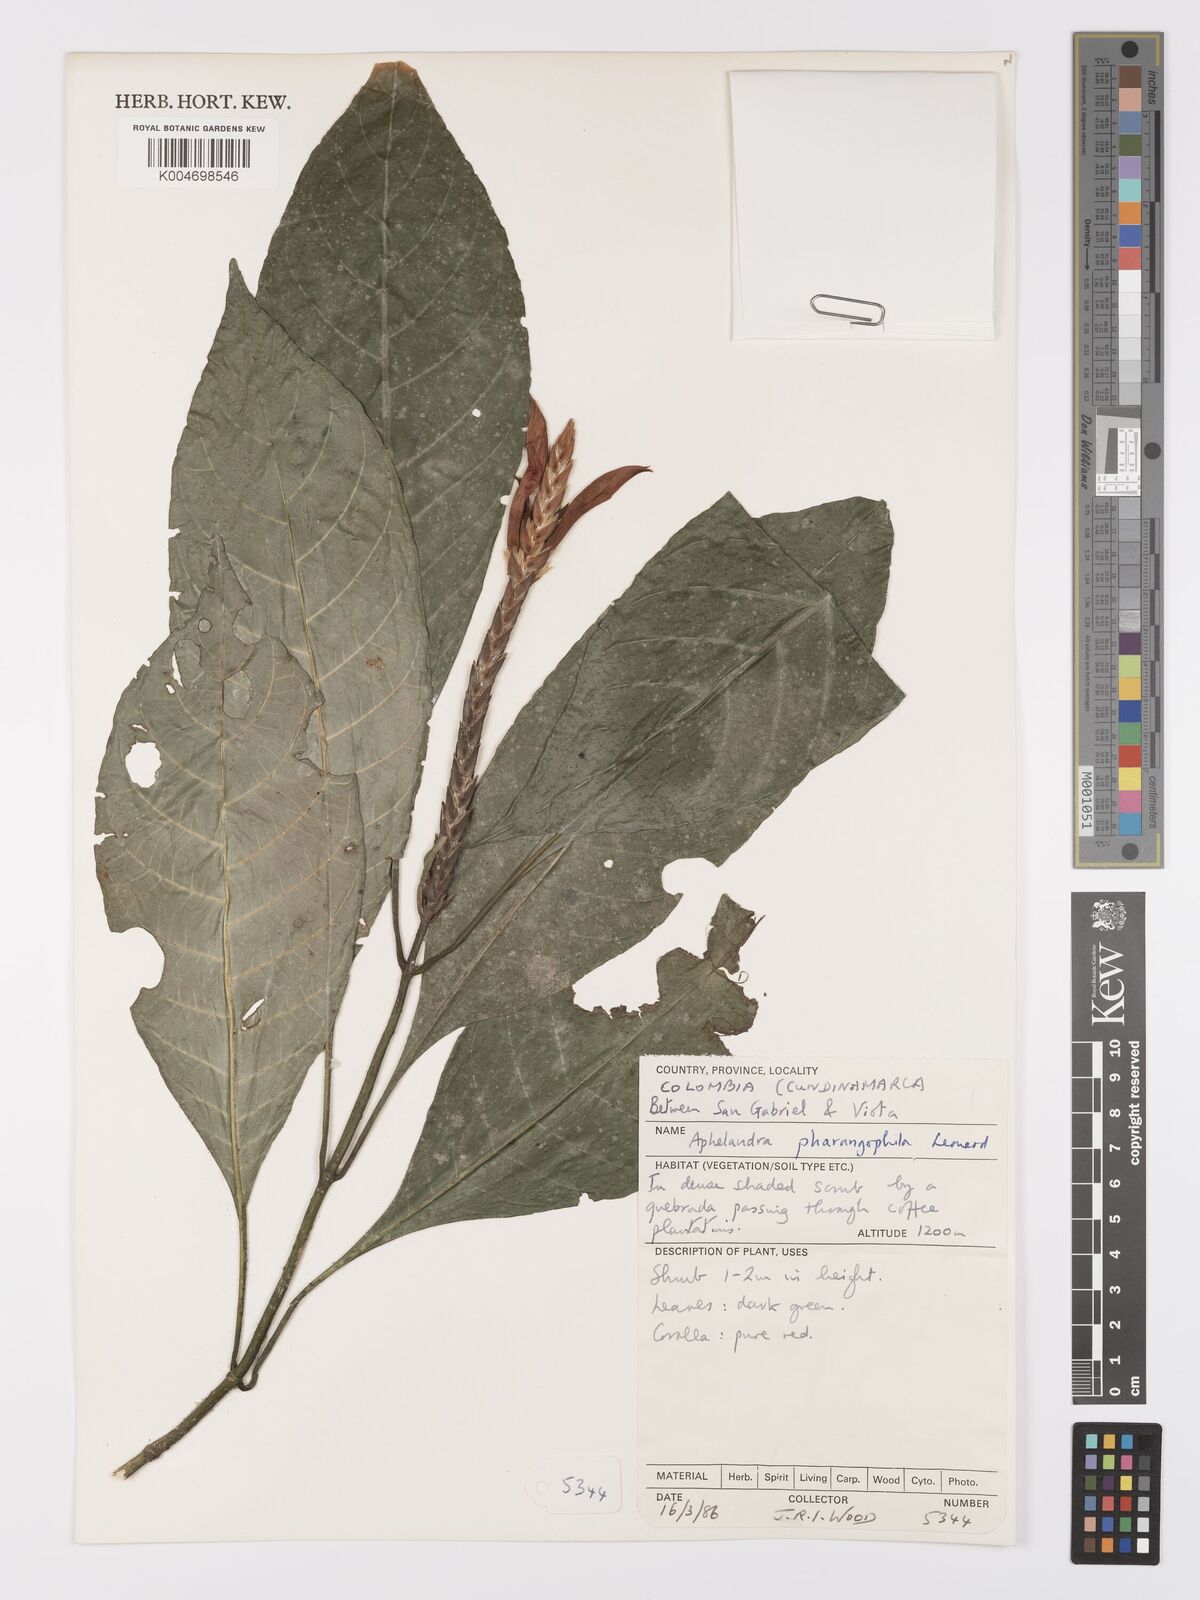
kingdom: Plantae
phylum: Tracheophyta
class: Magnoliopsida
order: Lamiales
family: Acanthaceae
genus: Aphelandra
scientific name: Aphelandra scolnikiae
